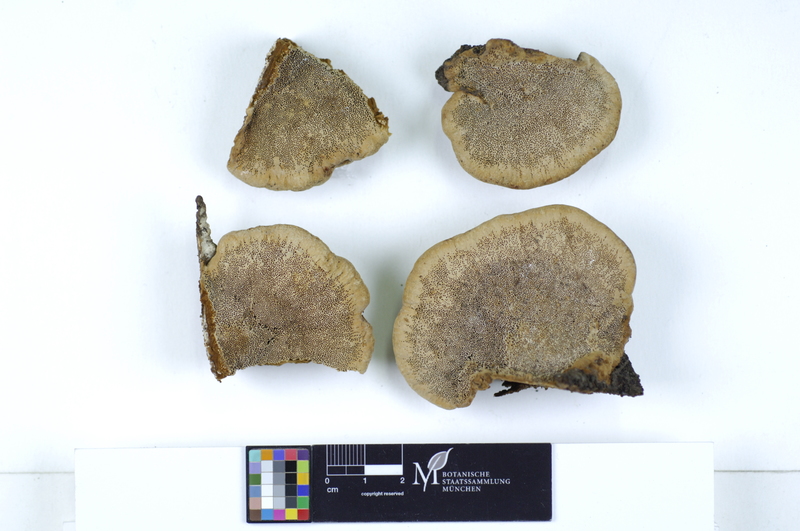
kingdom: Fungi
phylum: Basidiomycota
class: Agaricomycetes
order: Gloeophyllales
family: Gloeophyllaceae
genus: Gloeophyllum
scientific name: Gloeophyllum odoratum
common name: Anise mazegill
